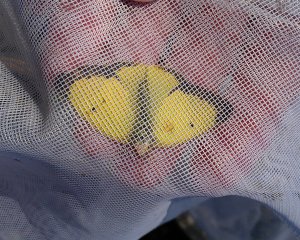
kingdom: Animalia
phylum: Arthropoda
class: Insecta
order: Lepidoptera
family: Pieridae
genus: Colias
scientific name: Colias philodice
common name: Clouded Sulphur
